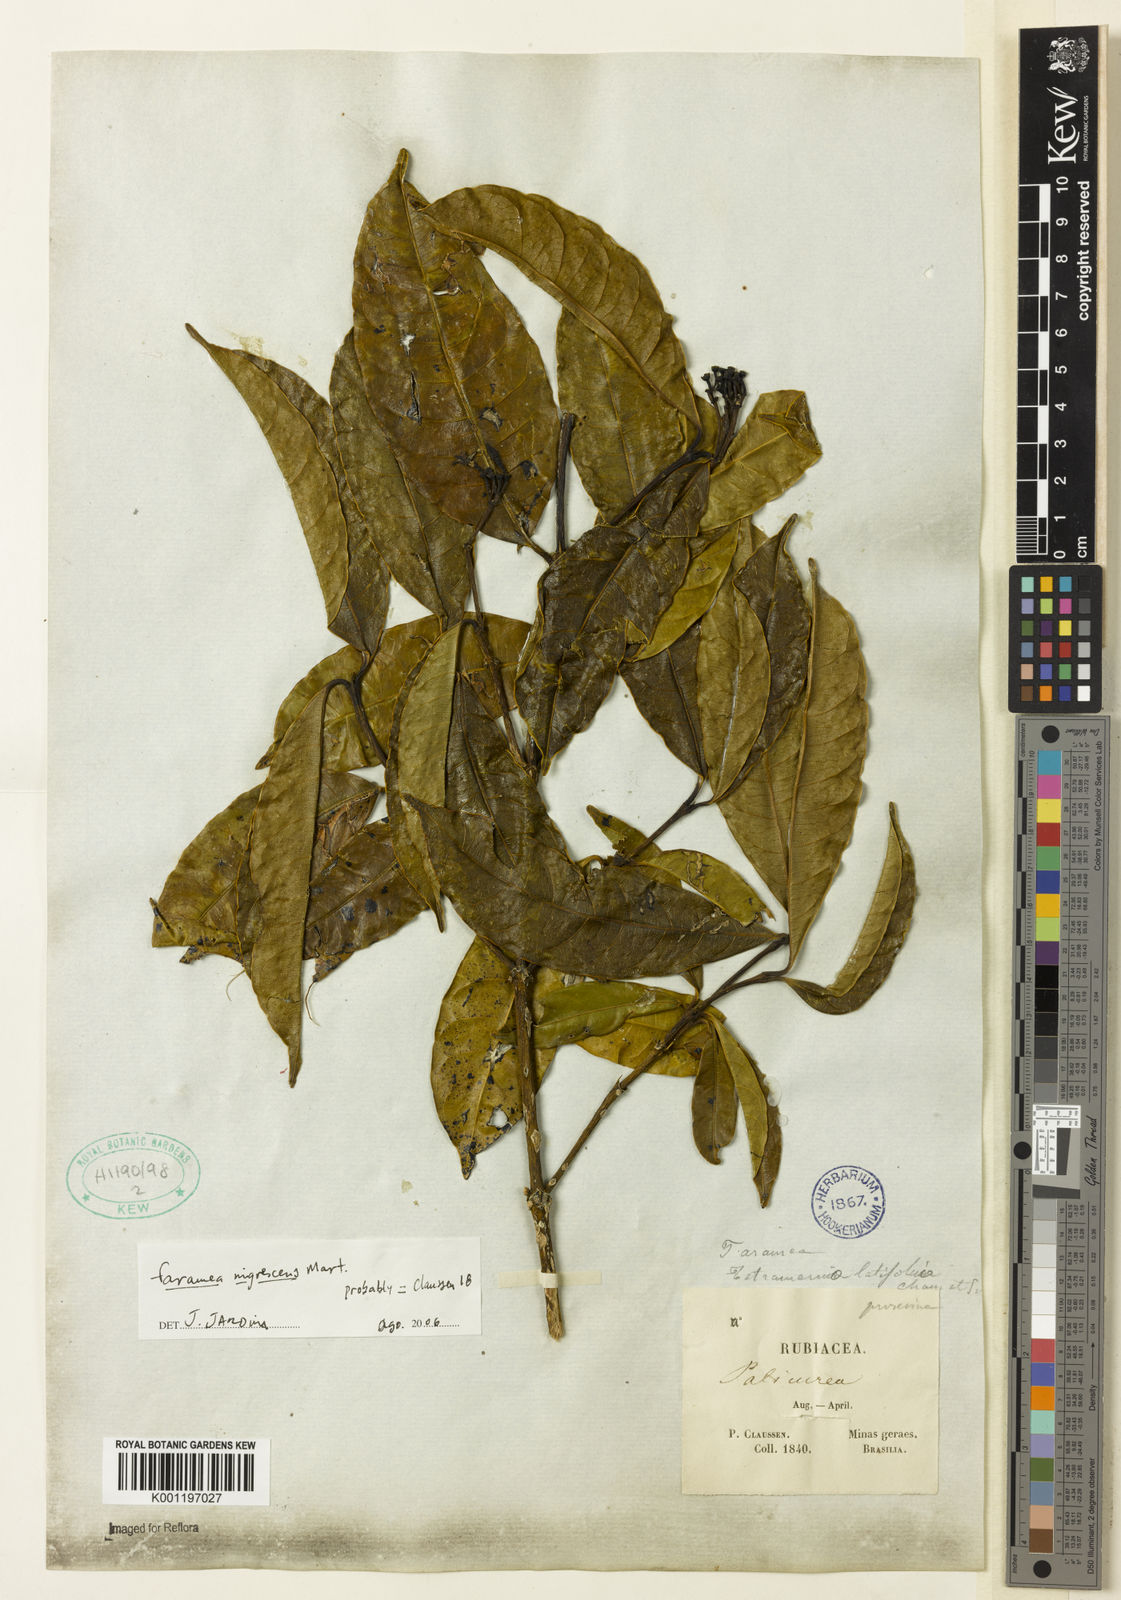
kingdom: Plantae
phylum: Tracheophyta
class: Magnoliopsida
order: Gentianales
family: Rubiaceae
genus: Faramea
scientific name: Faramea nigrescens
